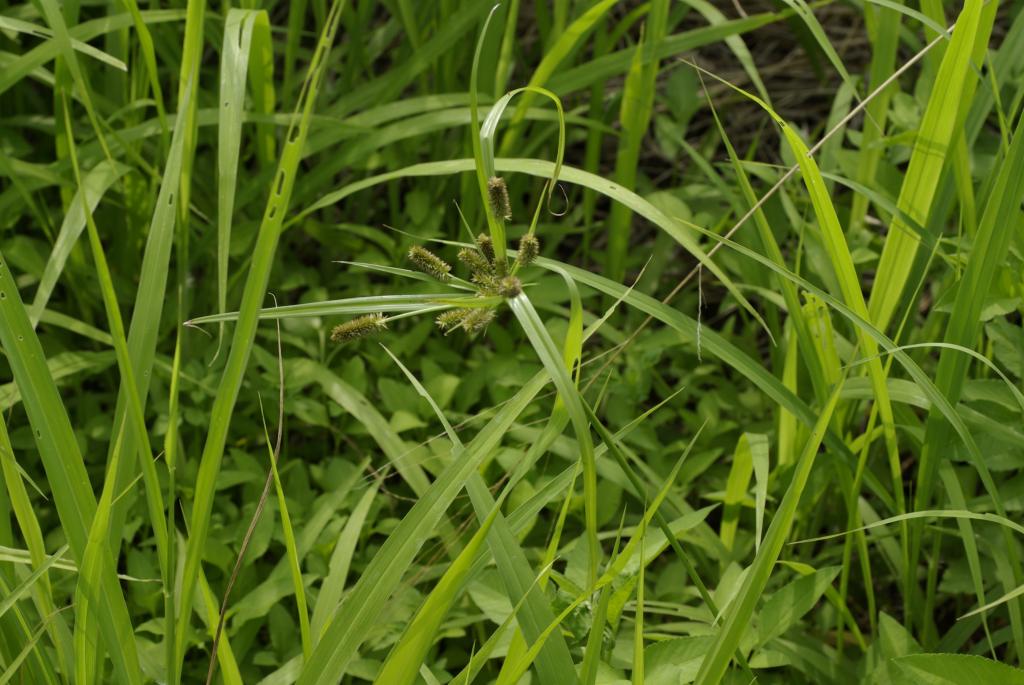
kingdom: Plantae
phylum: Tracheophyta
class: Liliopsida
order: Poales
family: Cyperaceae
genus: Cyperus
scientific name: Cyperus cyperoides
